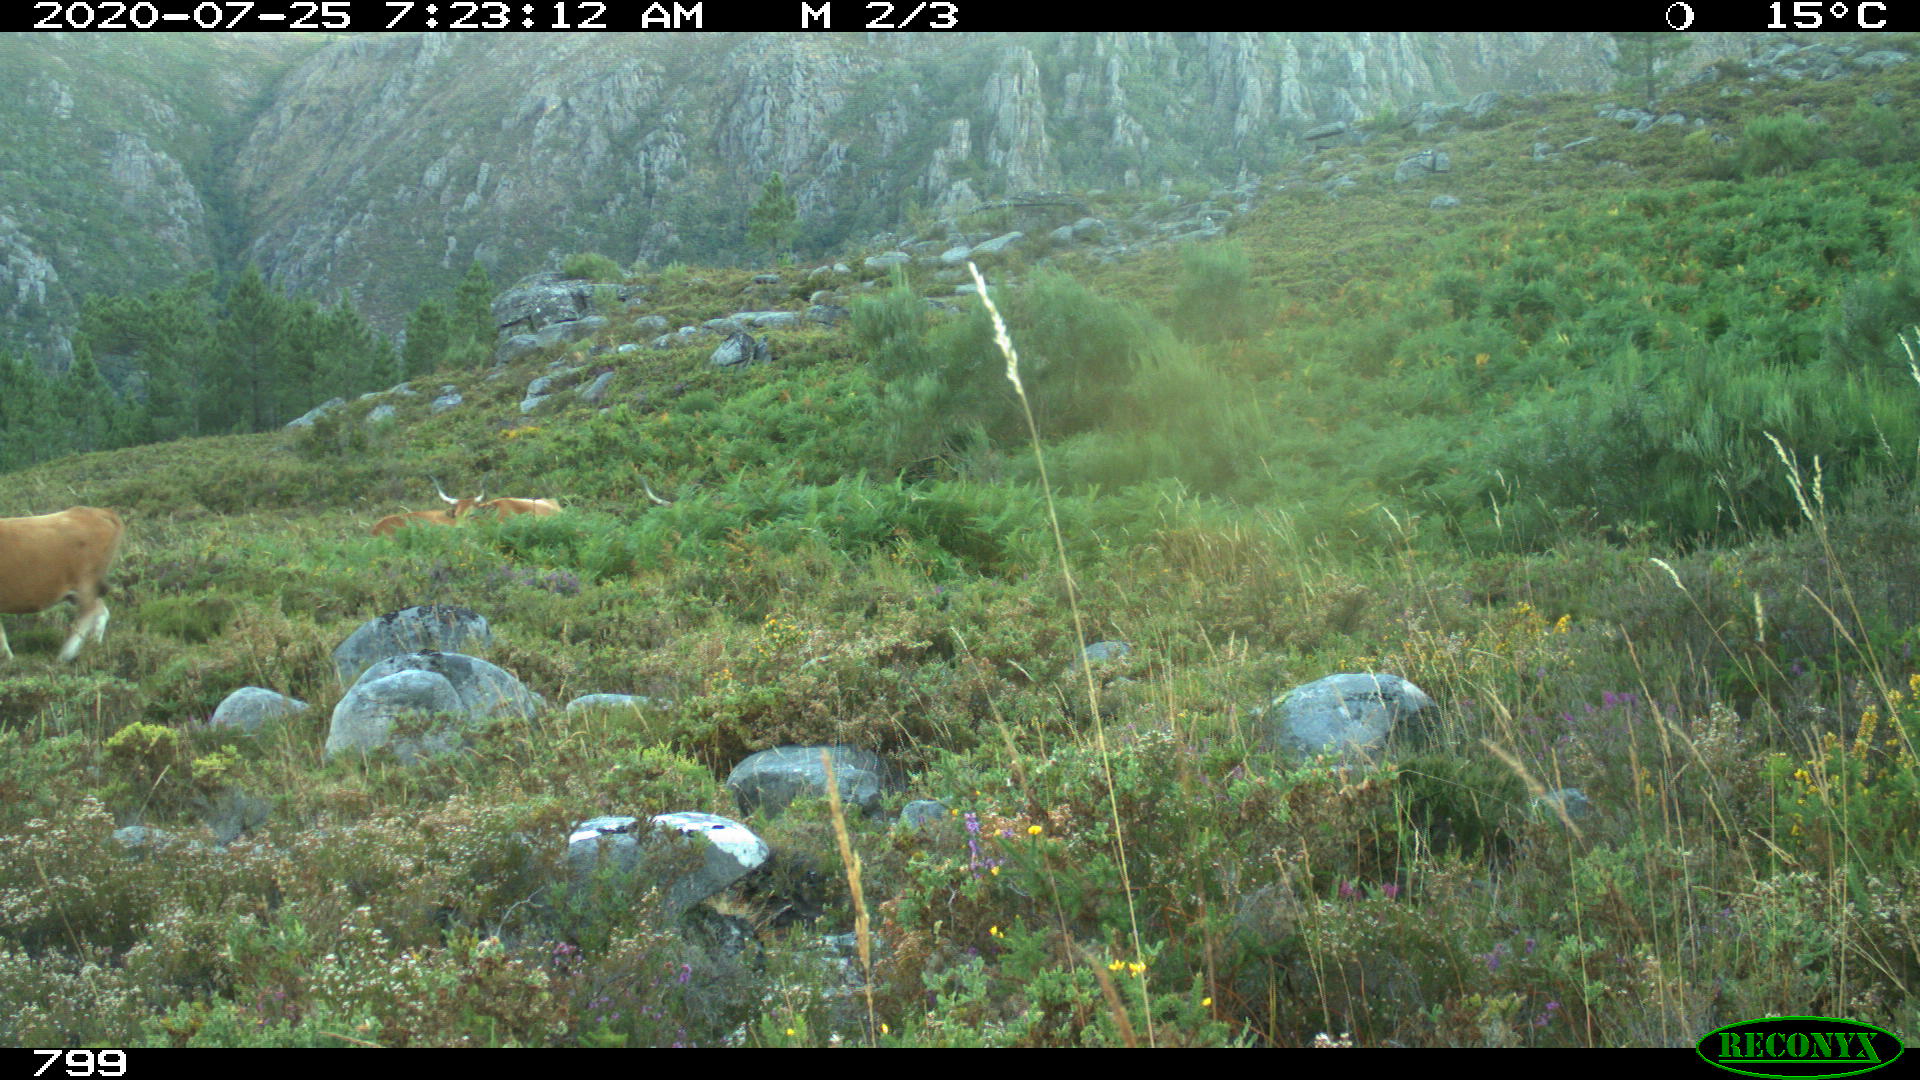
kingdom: Animalia
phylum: Chordata
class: Mammalia
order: Artiodactyla
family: Bovidae
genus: Bos
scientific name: Bos taurus
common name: Domesticated cattle
